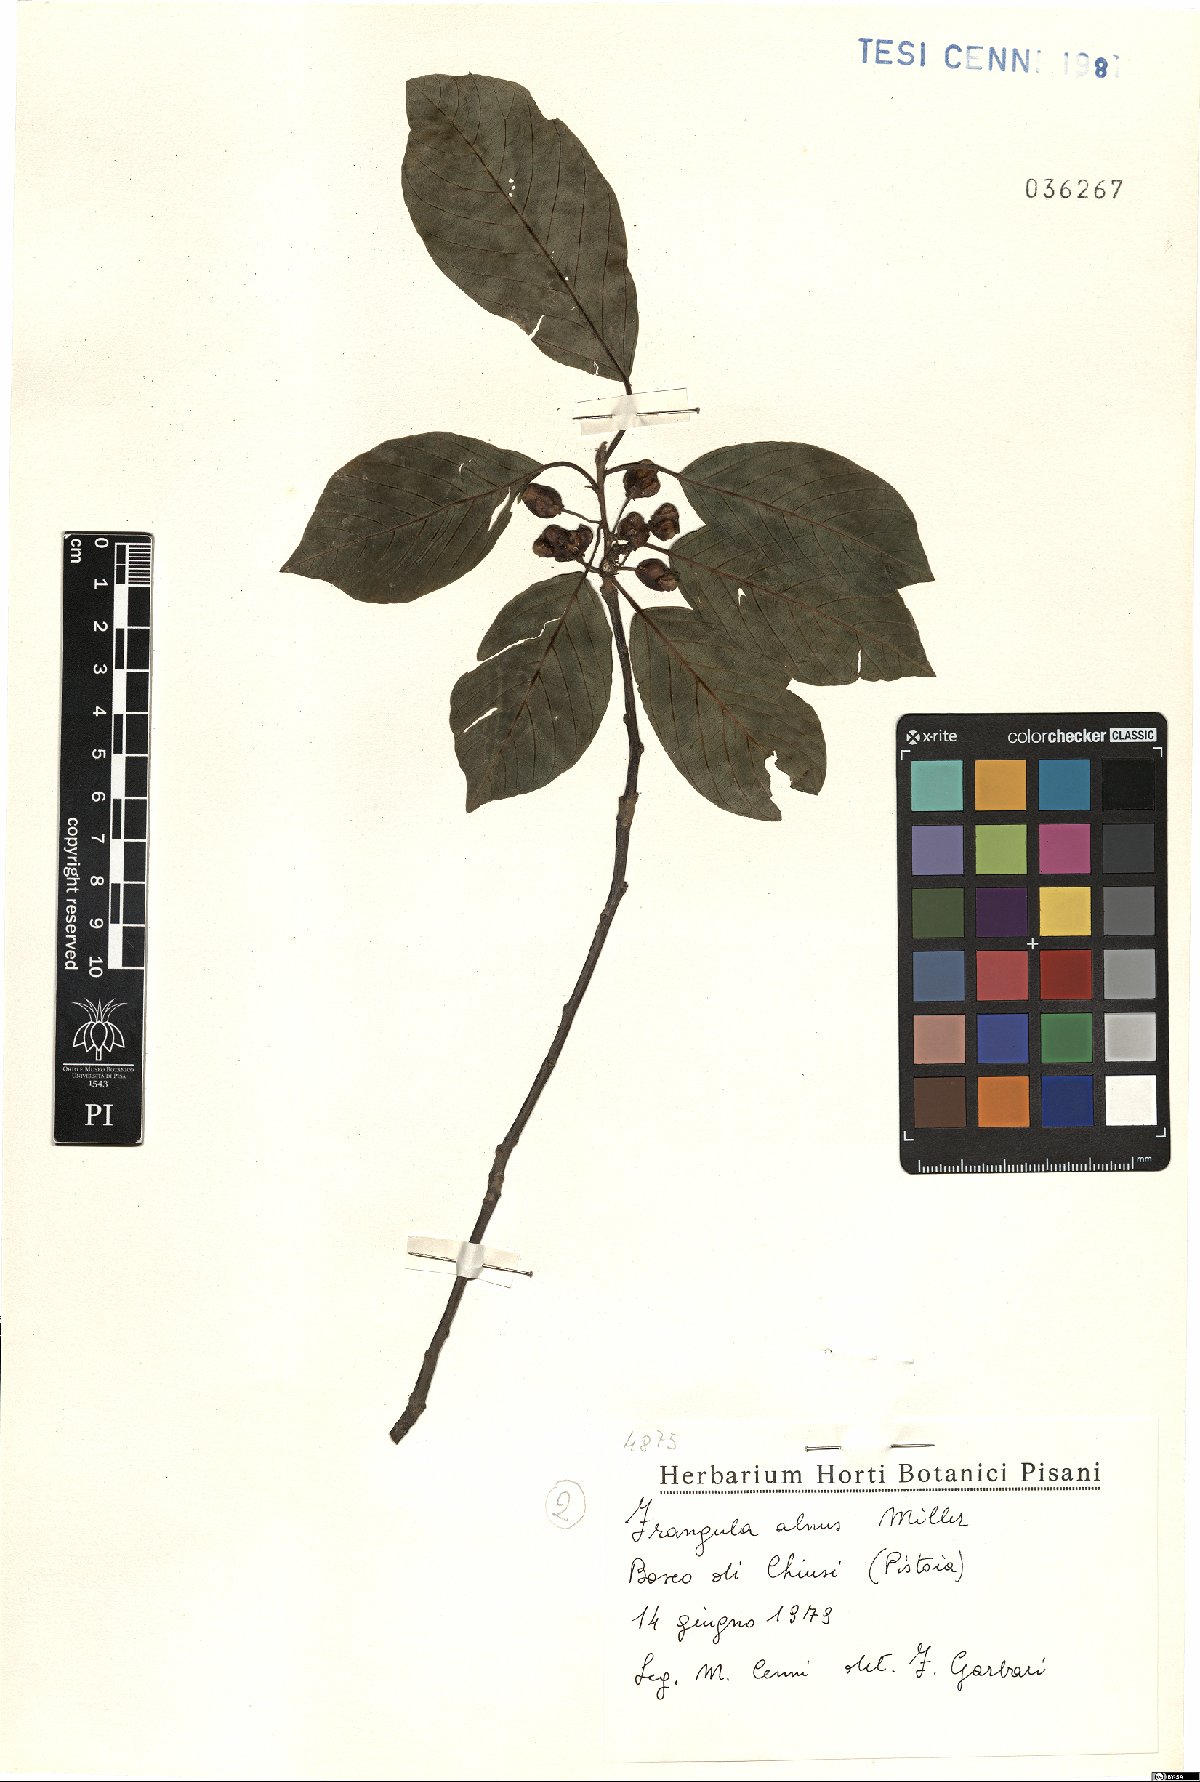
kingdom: Plantae
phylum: Tracheophyta
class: Magnoliopsida
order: Rosales
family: Rhamnaceae
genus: Frangula
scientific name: Frangula alnus
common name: Alder buckthorn
